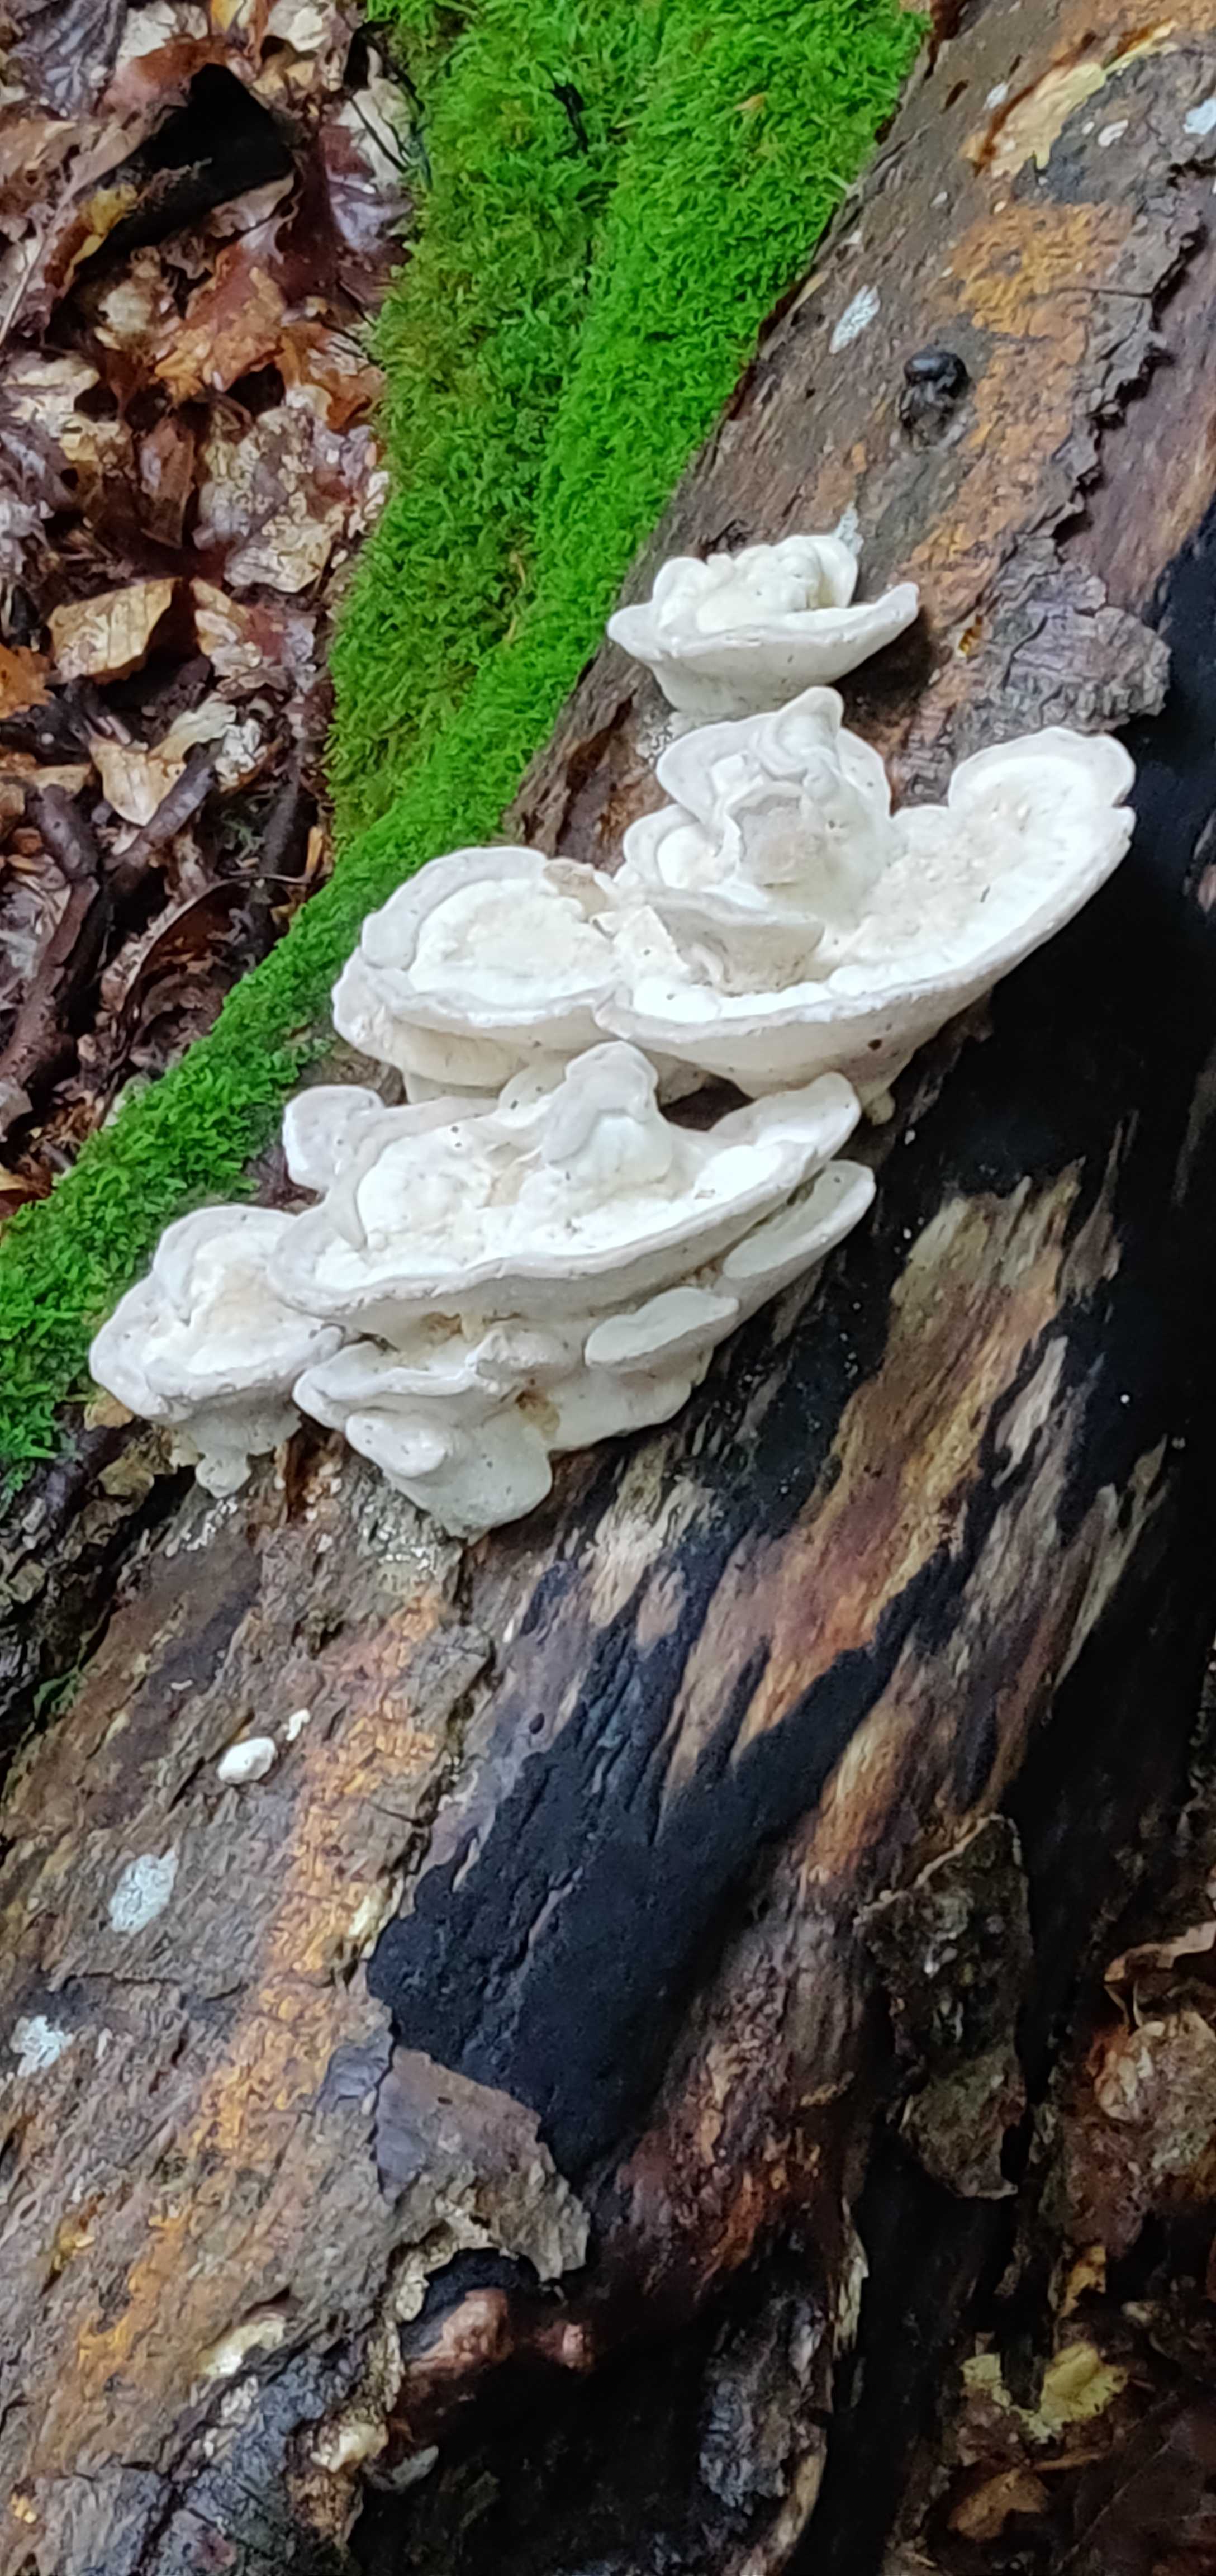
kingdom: Fungi
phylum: Basidiomycota
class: Agaricomycetes
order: Polyporales
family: Polyporaceae
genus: Trametes
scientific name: Trametes gibbosa
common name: puklet læderporesvamp
